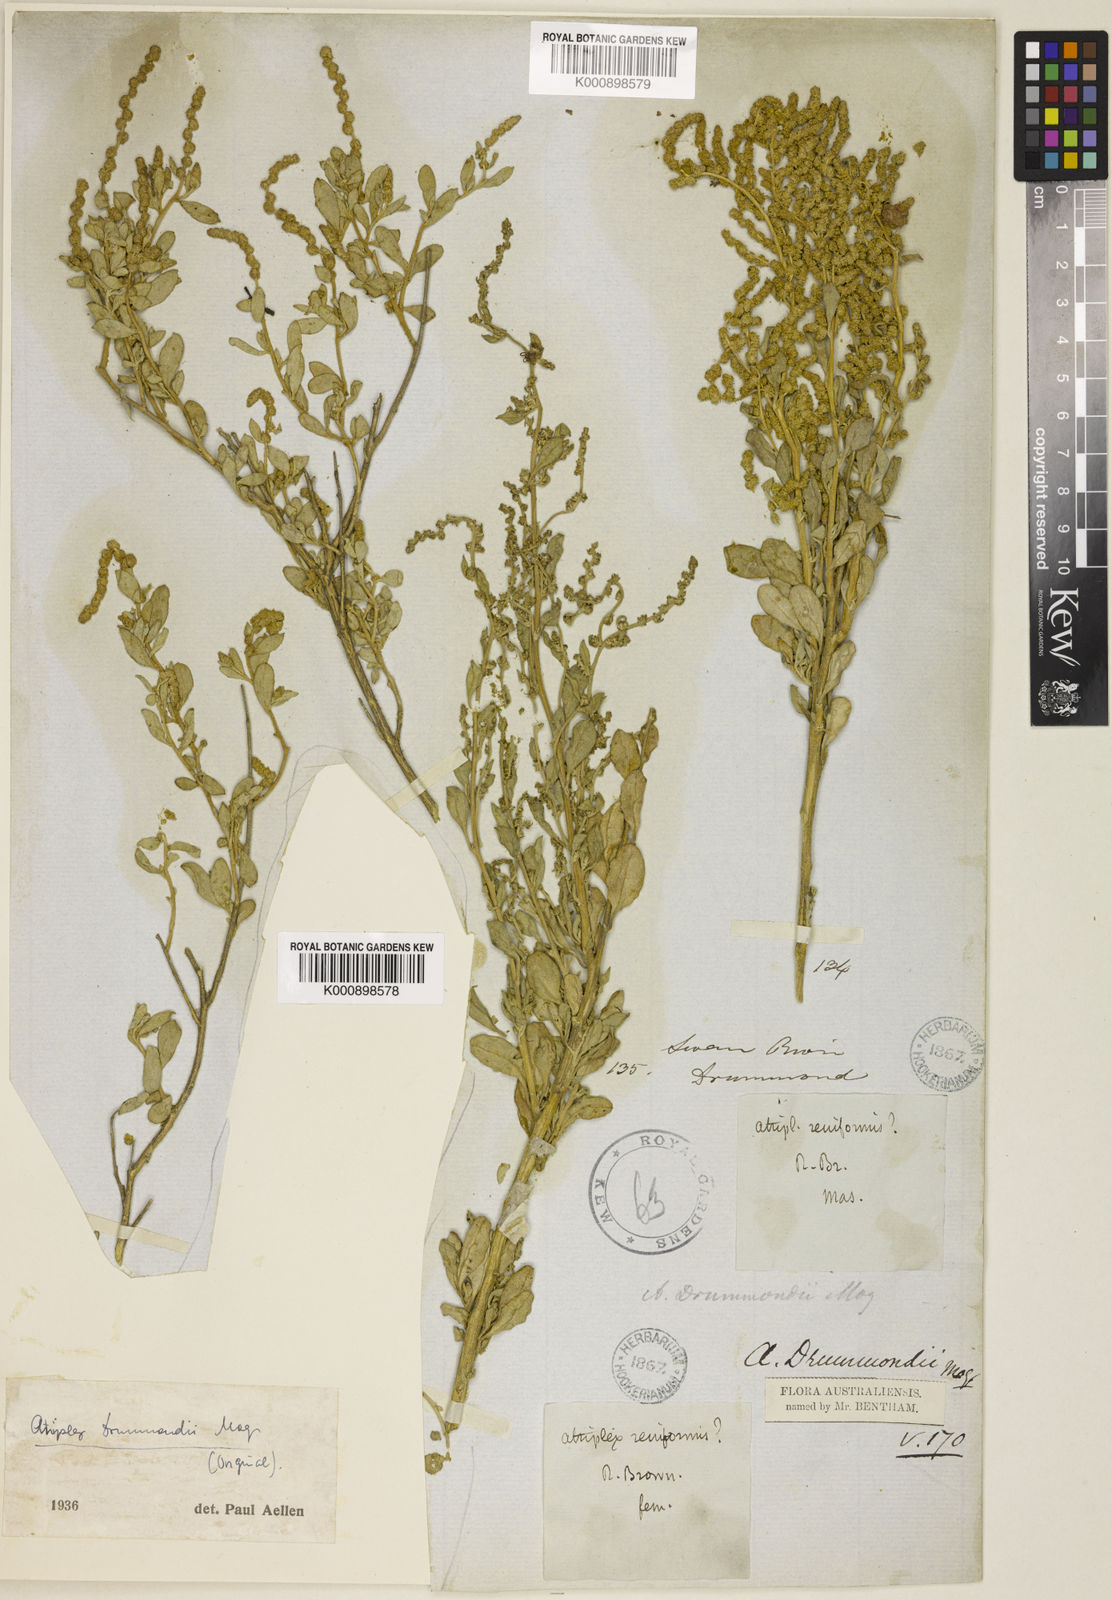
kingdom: Plantae
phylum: Tracheophyta
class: Magnoliopsida
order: Caryophyllales
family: Amaranthaceae
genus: Atriplex
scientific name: Atriplex paludosa
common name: Marsh saltbush
